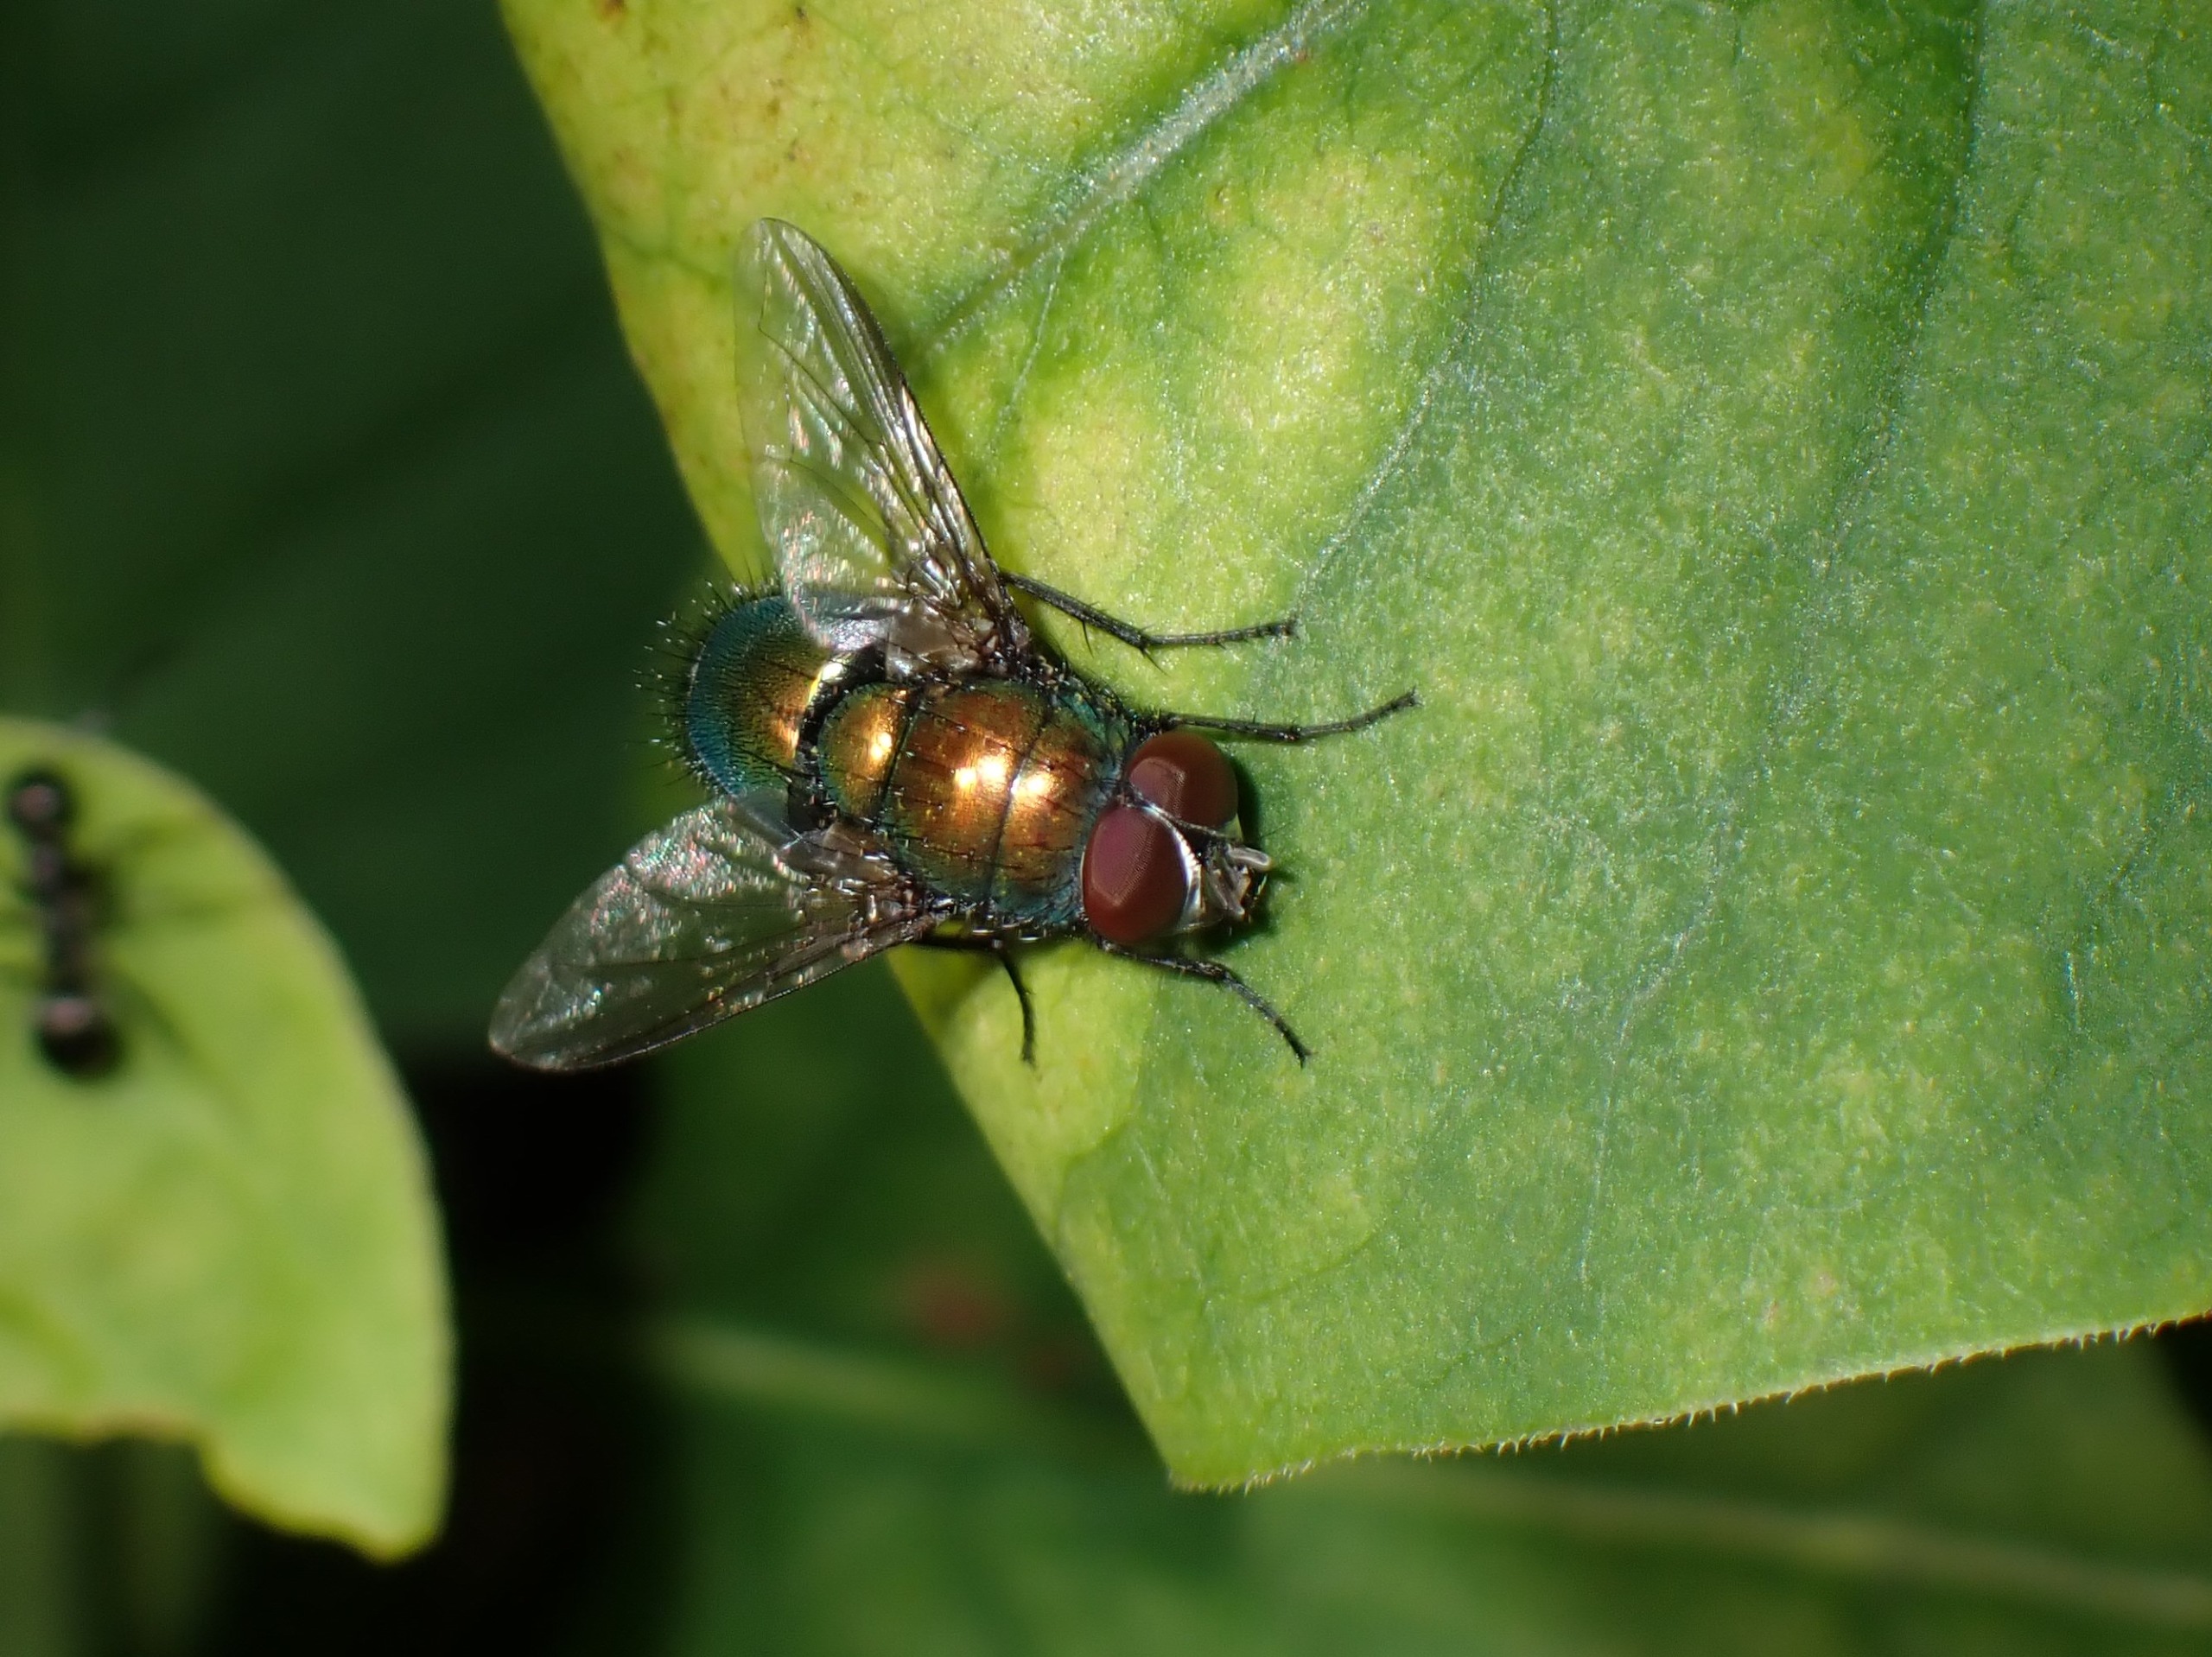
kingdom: Animalia
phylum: Arthropoda
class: Insecta
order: Diptera
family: Calliphoridae
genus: Lucilia
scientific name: Lucilia
